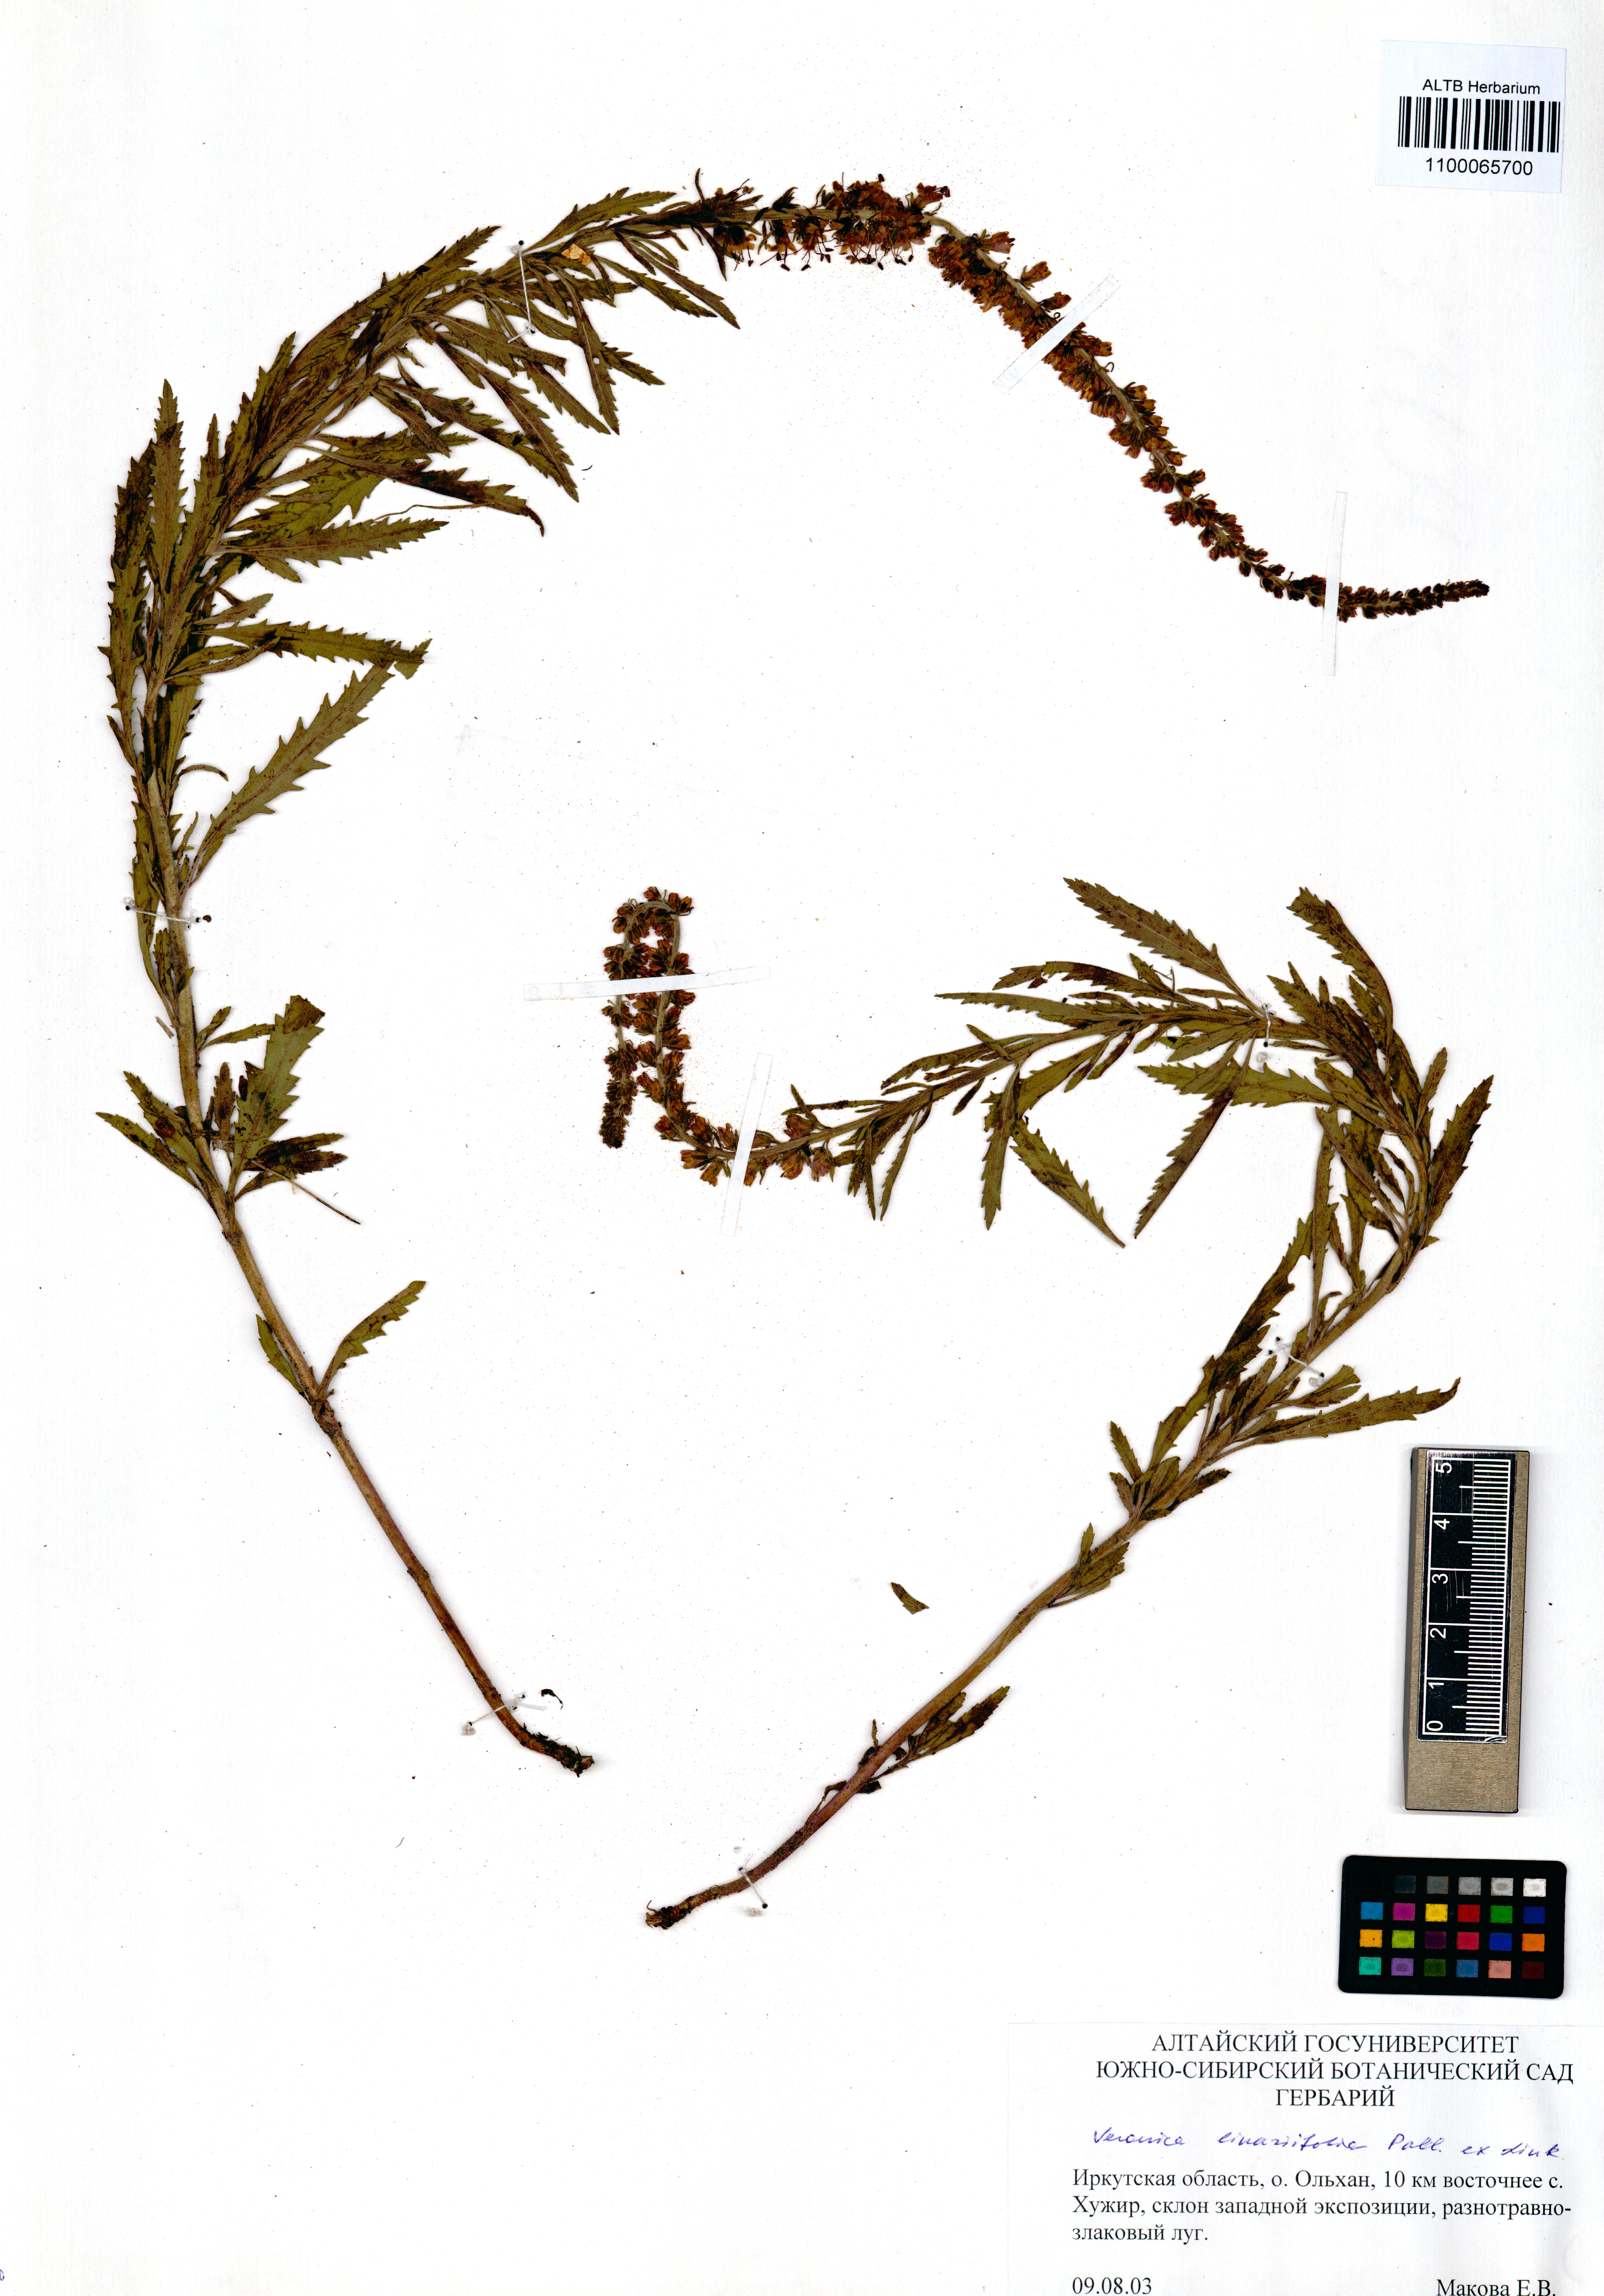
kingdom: Plantae
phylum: Tracheophyta
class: Magnoliopsida
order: Lamiales
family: Plantaginaceae
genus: Veronica
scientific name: Veronica linariifolia
